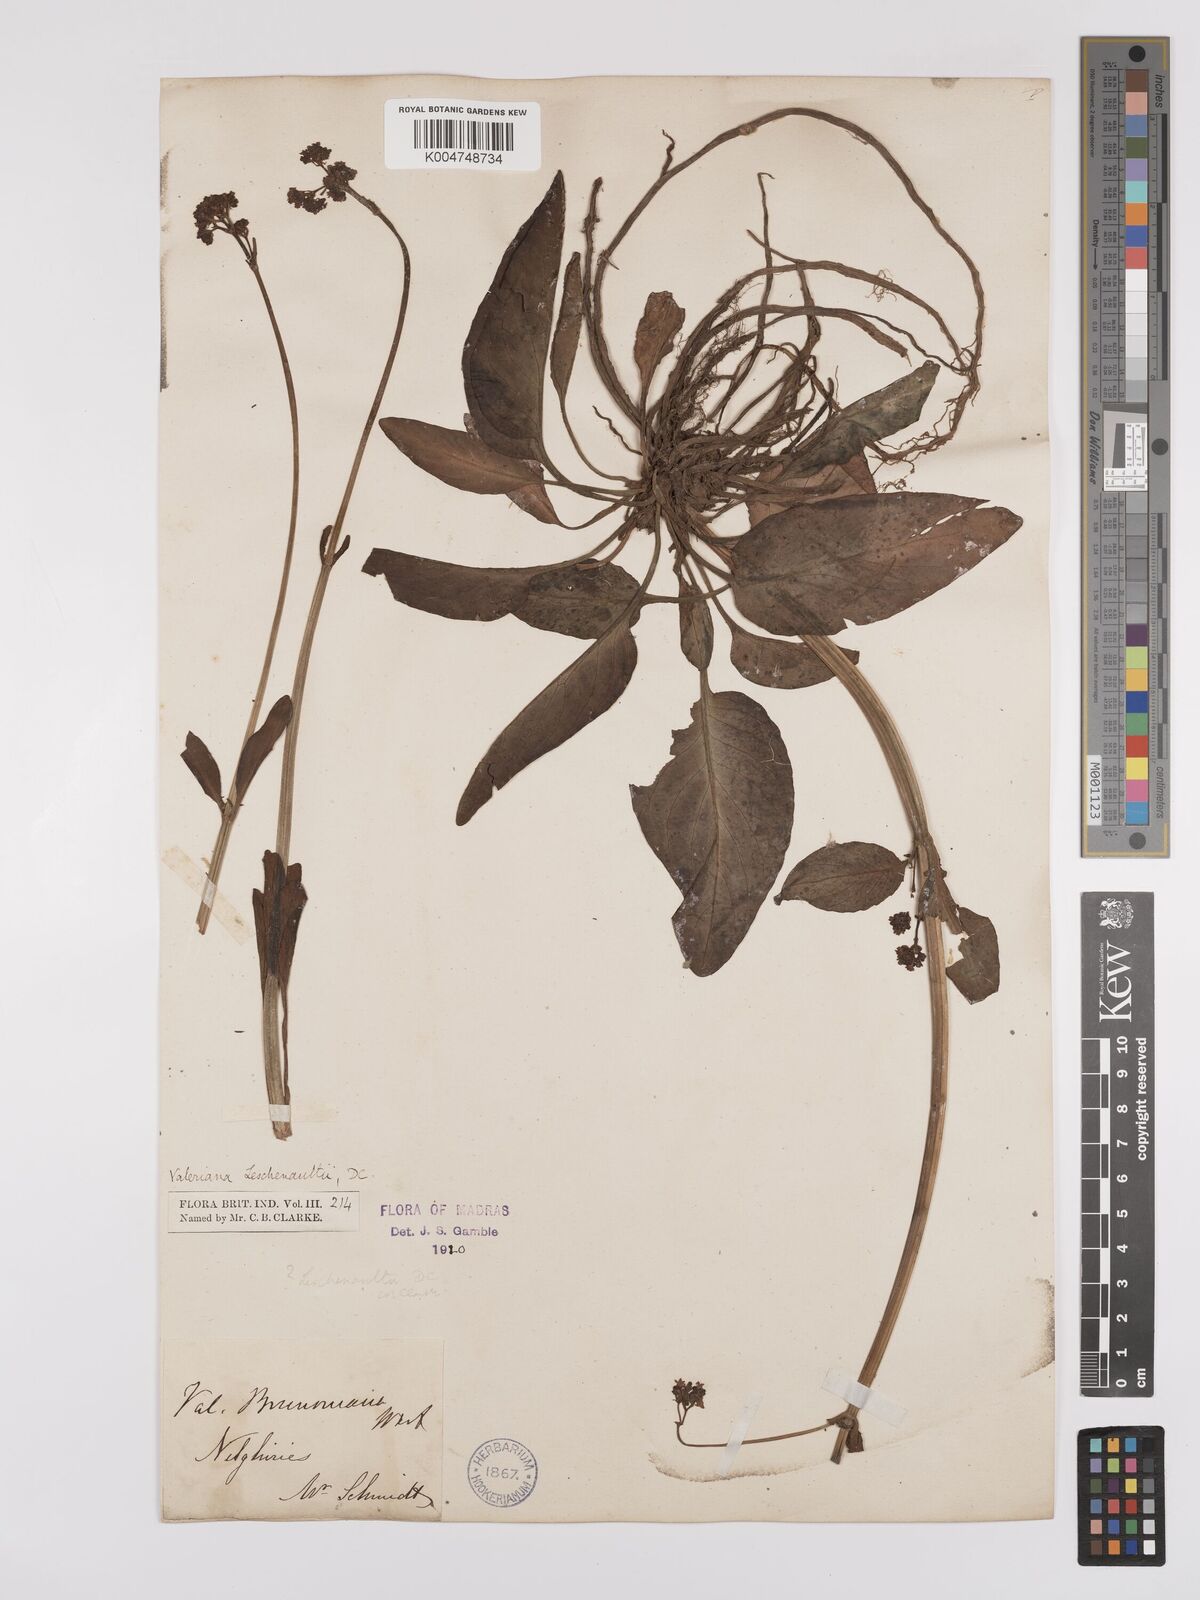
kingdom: Plantae
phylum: Tracheophyta
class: Magnoliopsida
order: Dipsacales
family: Caprifoliaceae
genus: Valeriana
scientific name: Valeriana leschenaultii
